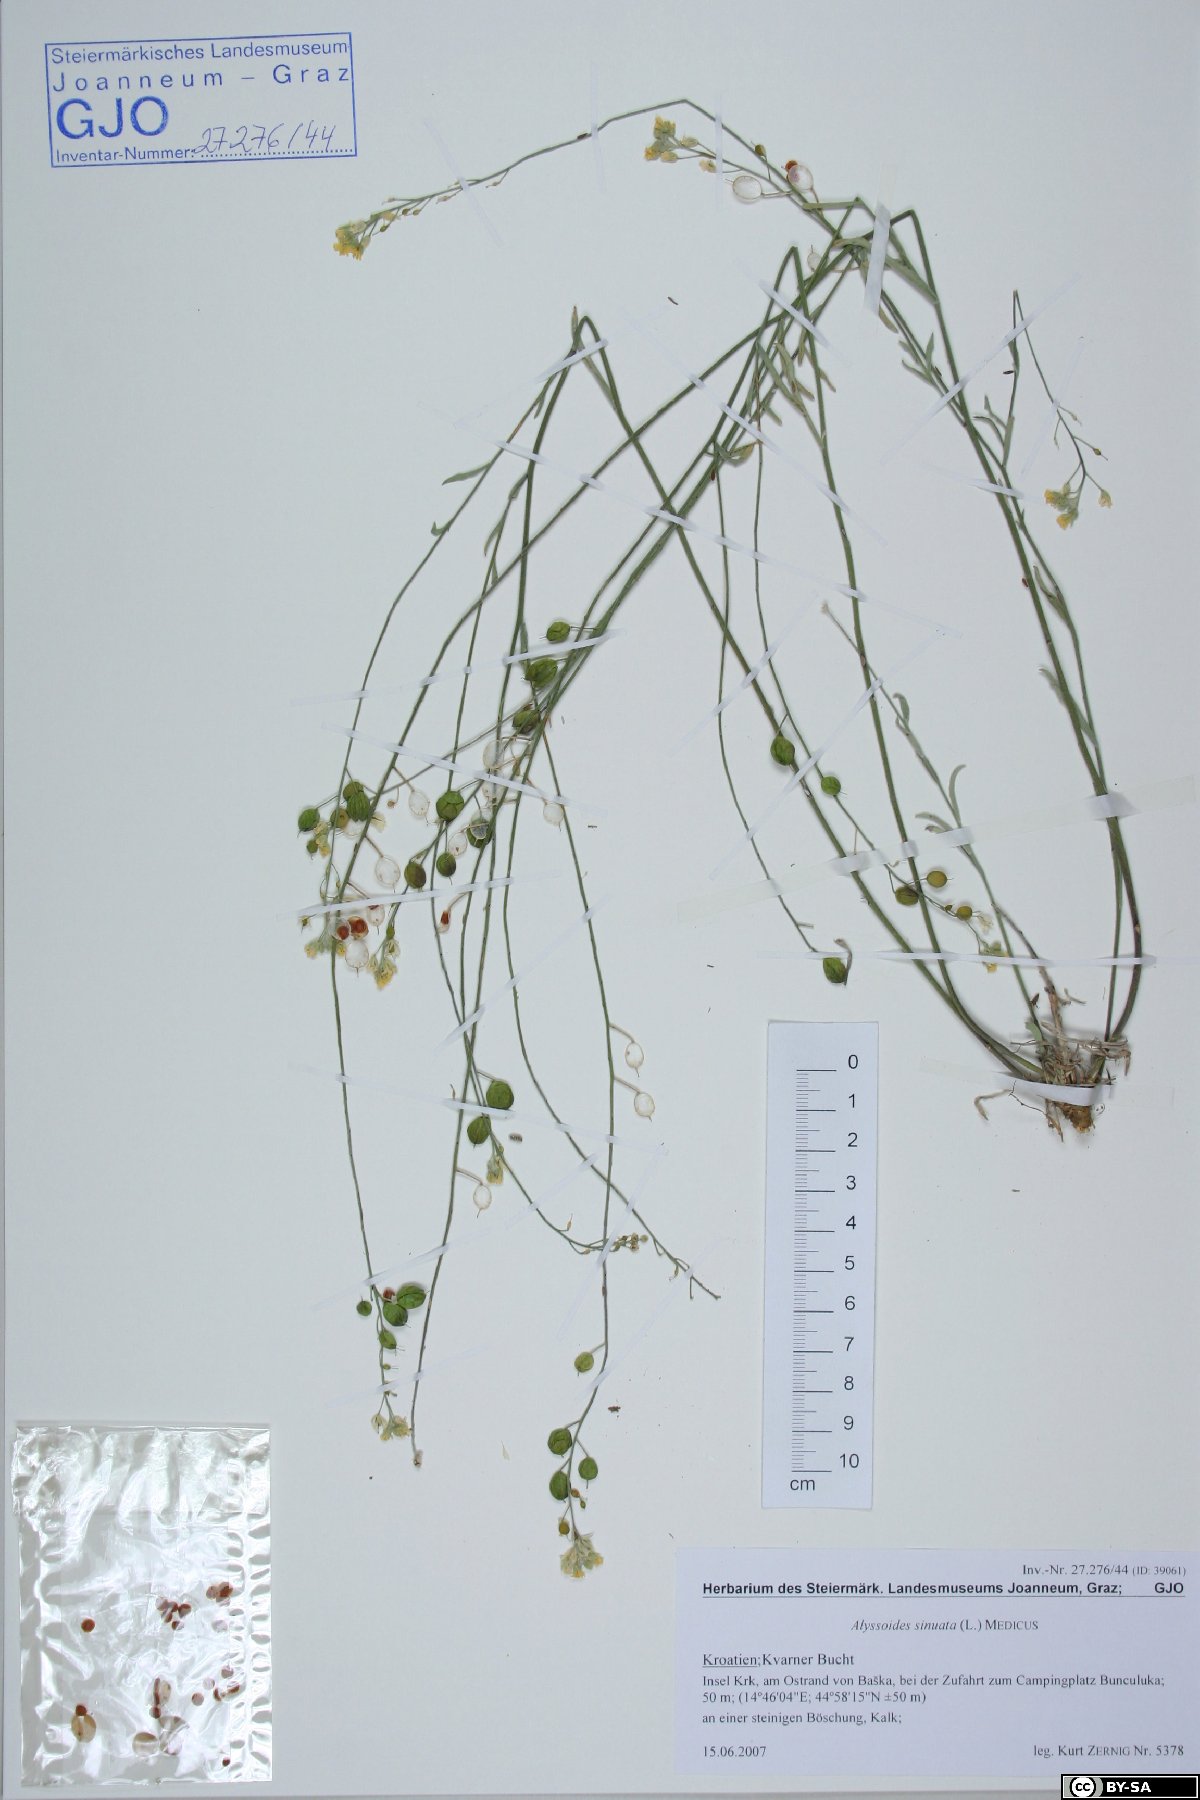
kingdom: Plantae
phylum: Tracheophyta
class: Magnoliopsida
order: Brassicales
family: Brassicaceae
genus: Aurinia
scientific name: Aurinia sinuata
